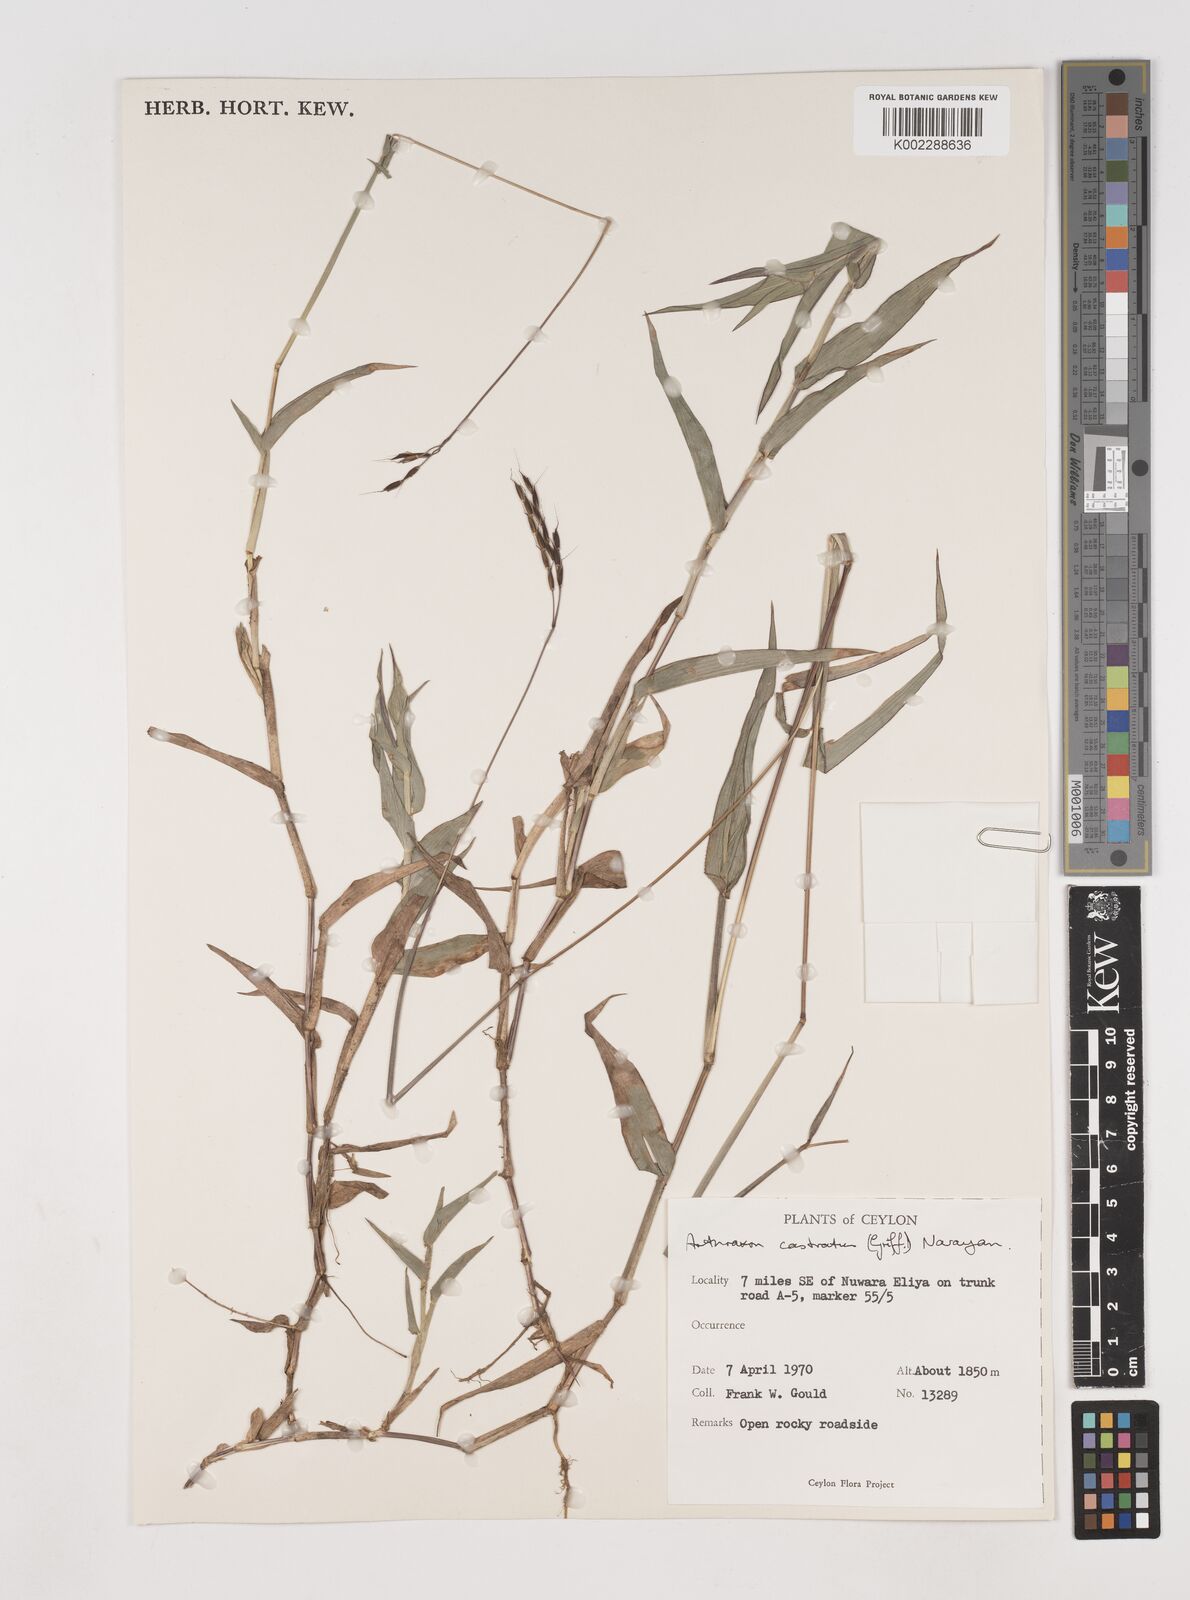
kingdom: Plantae
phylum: Tracheophyta
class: Liliopsida
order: Poales
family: Poaceae
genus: Arthraxon
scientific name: Arthraxon castratus
